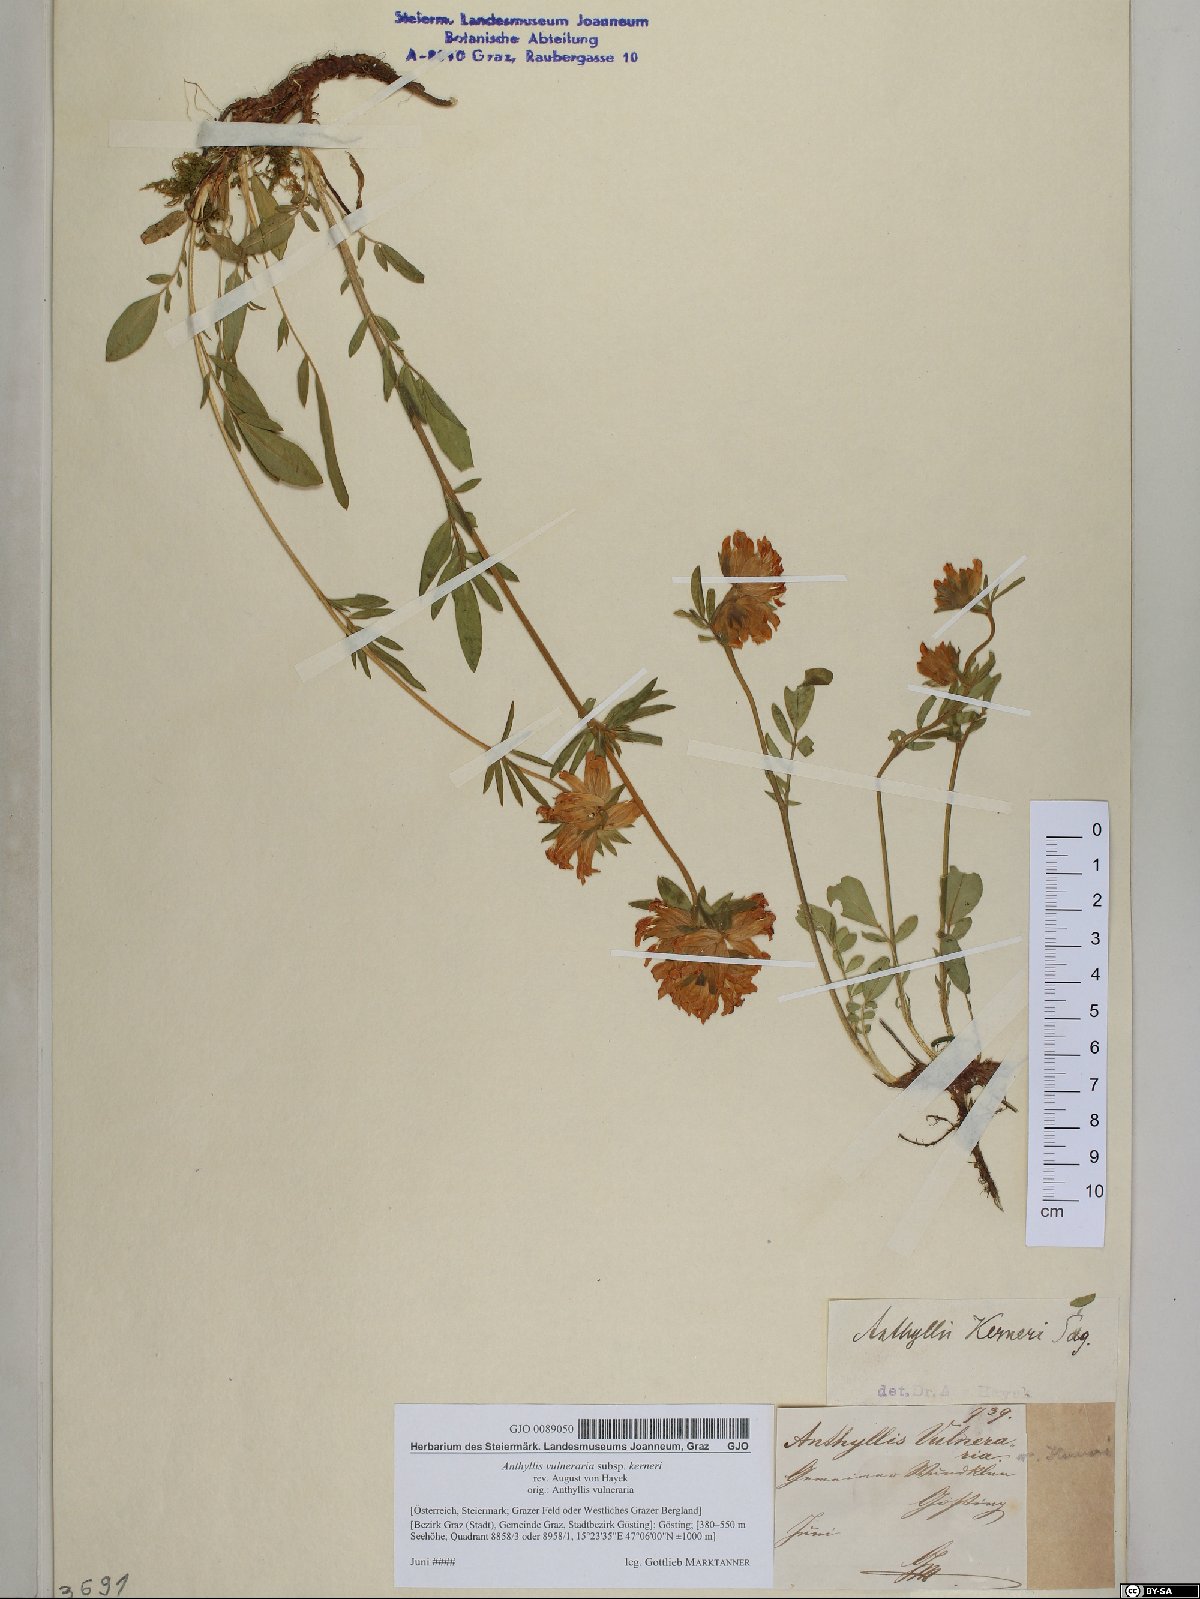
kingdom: Plantae
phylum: Tracheophyta
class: Magnoliopsida
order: Fabales
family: Fabaceae
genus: Anthyllis
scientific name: Anthyllis vulneraria
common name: Kidney vetch
